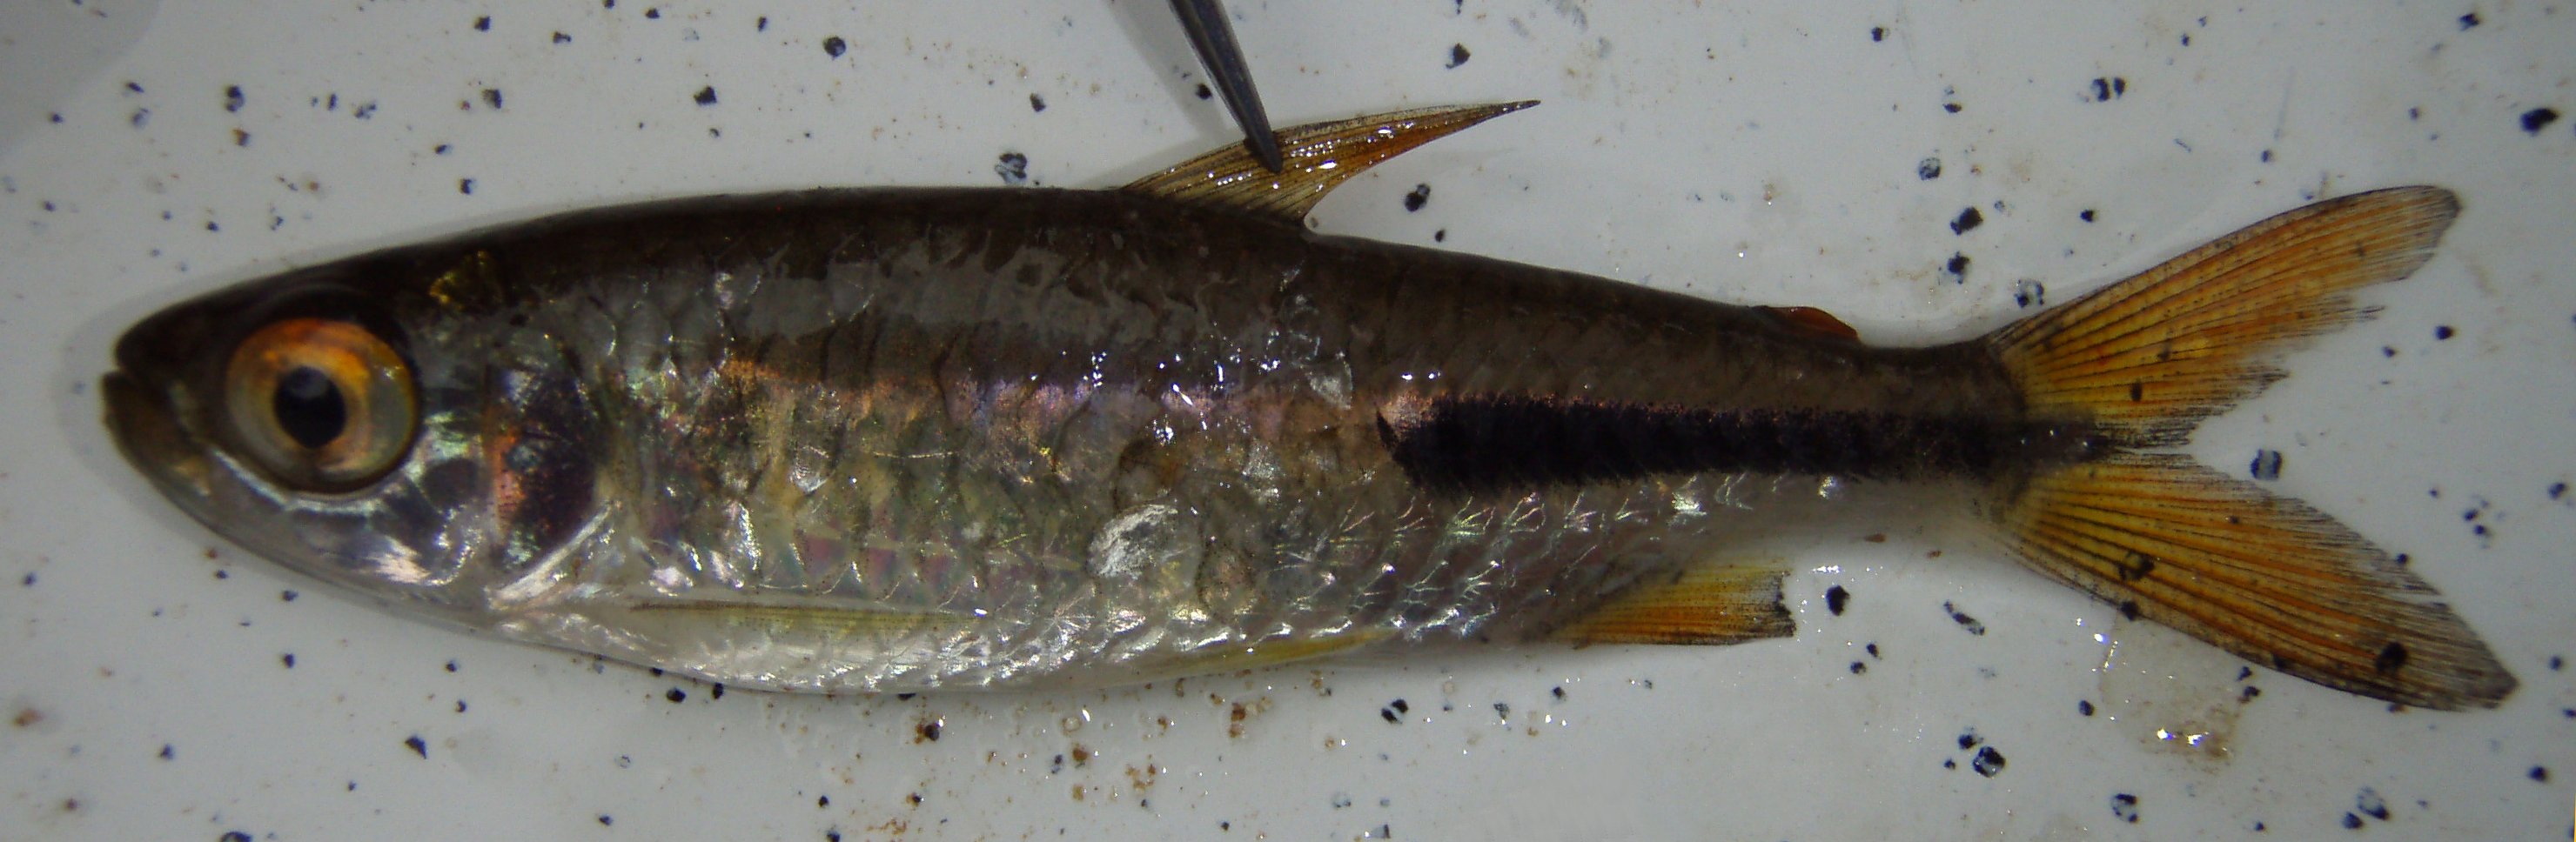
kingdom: Animalia
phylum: Chordata
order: Characiformes
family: Alestidae
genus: Brycinus
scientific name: Brycinus kingsleyae
